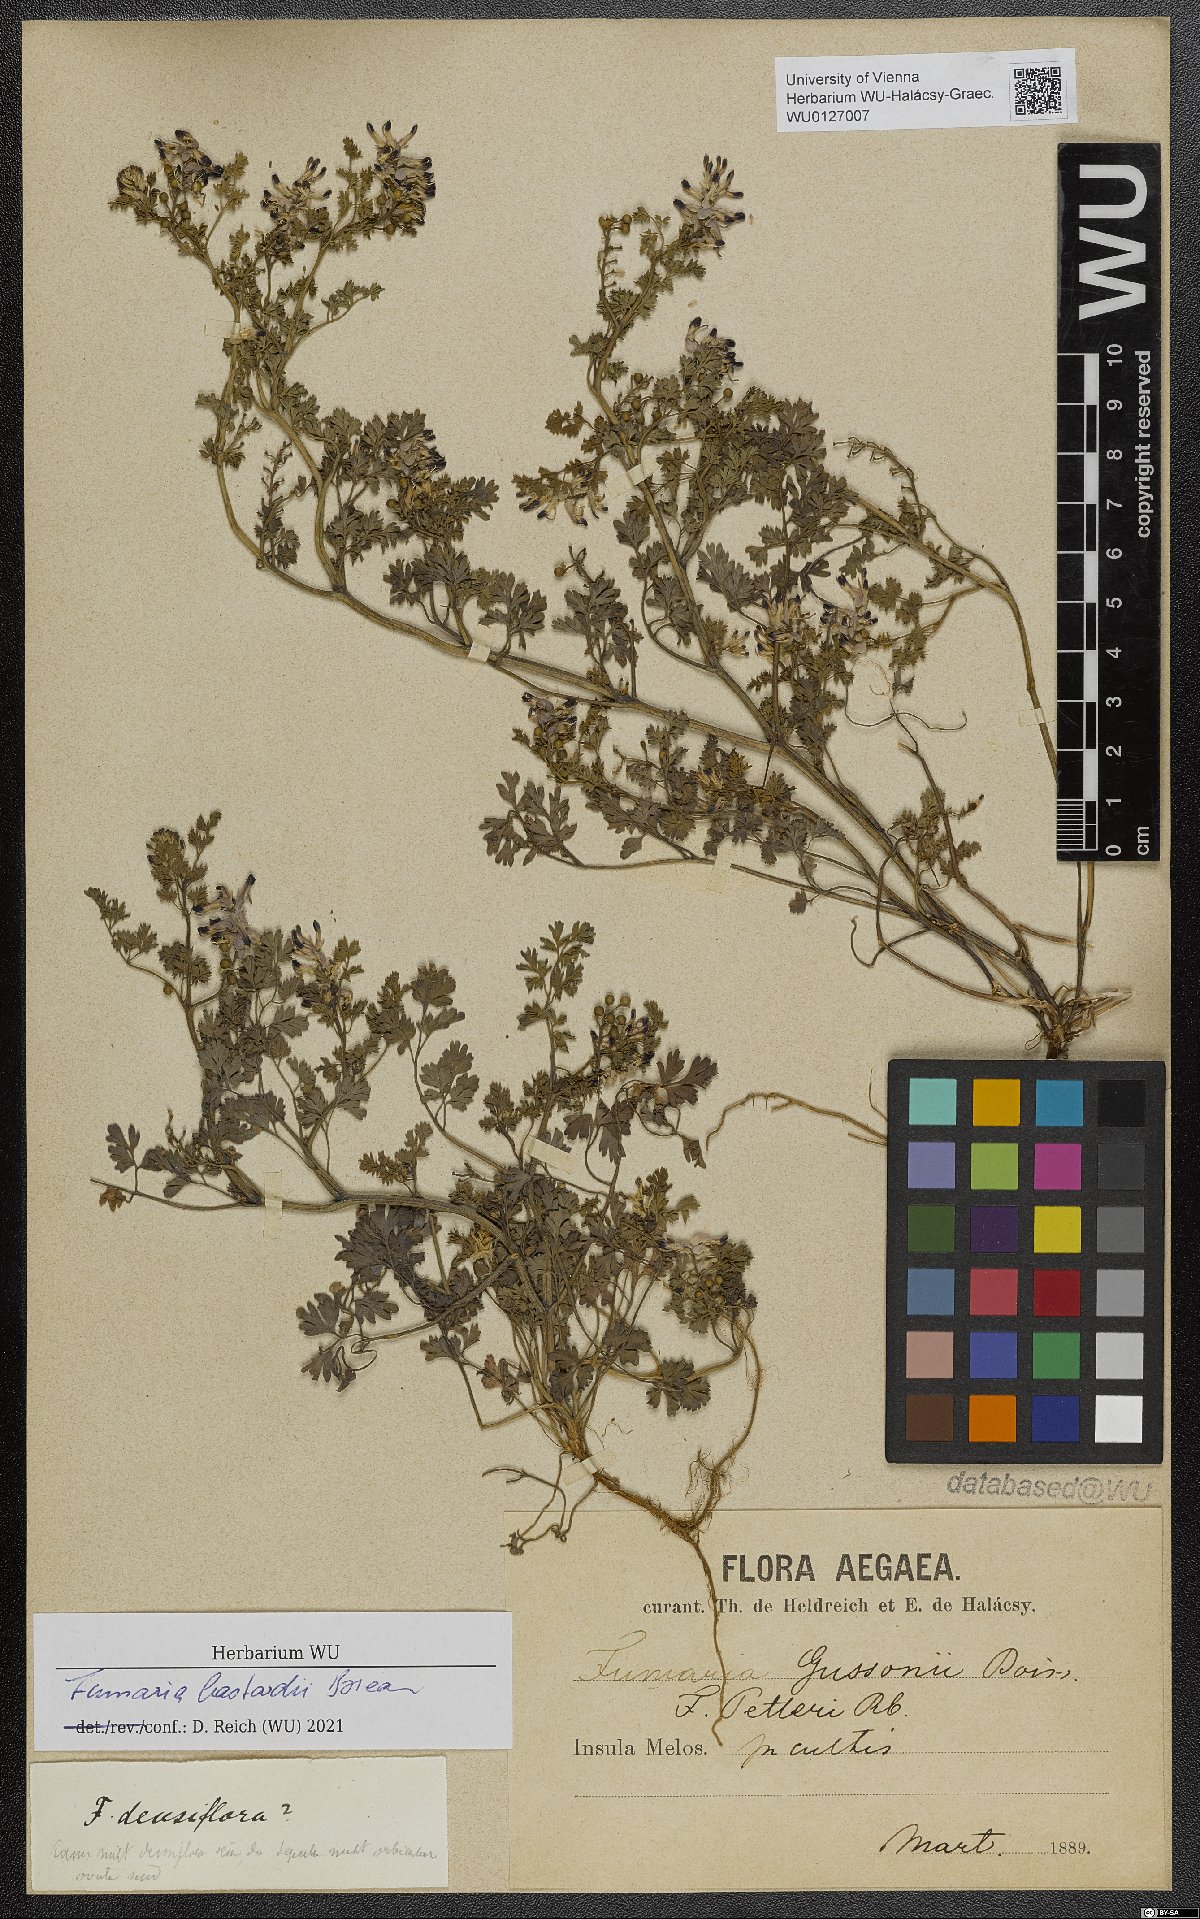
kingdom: Plantae
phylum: Tracheophyta
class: Magnoliopsida
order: Ranunculales
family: Papaveraceae
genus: Fumaria
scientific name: Fumaria bastardii
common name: Tall ramping-fumitory
